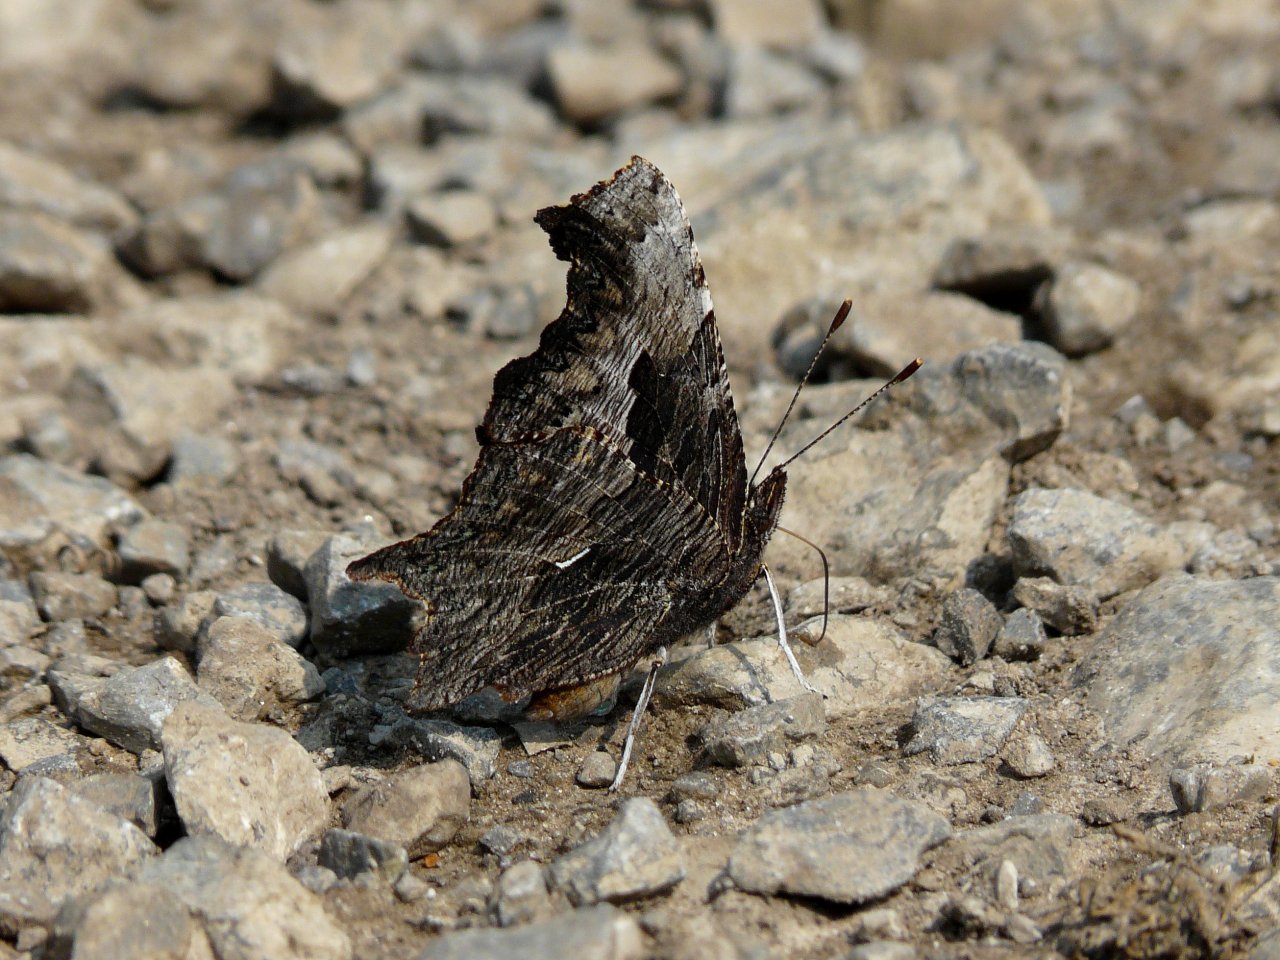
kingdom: Animalia
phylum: Arthropoda
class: Insecta
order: Lepidoptera
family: Nymphalidae
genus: Polygonia
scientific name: Polygonia progne
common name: Gray Comma
